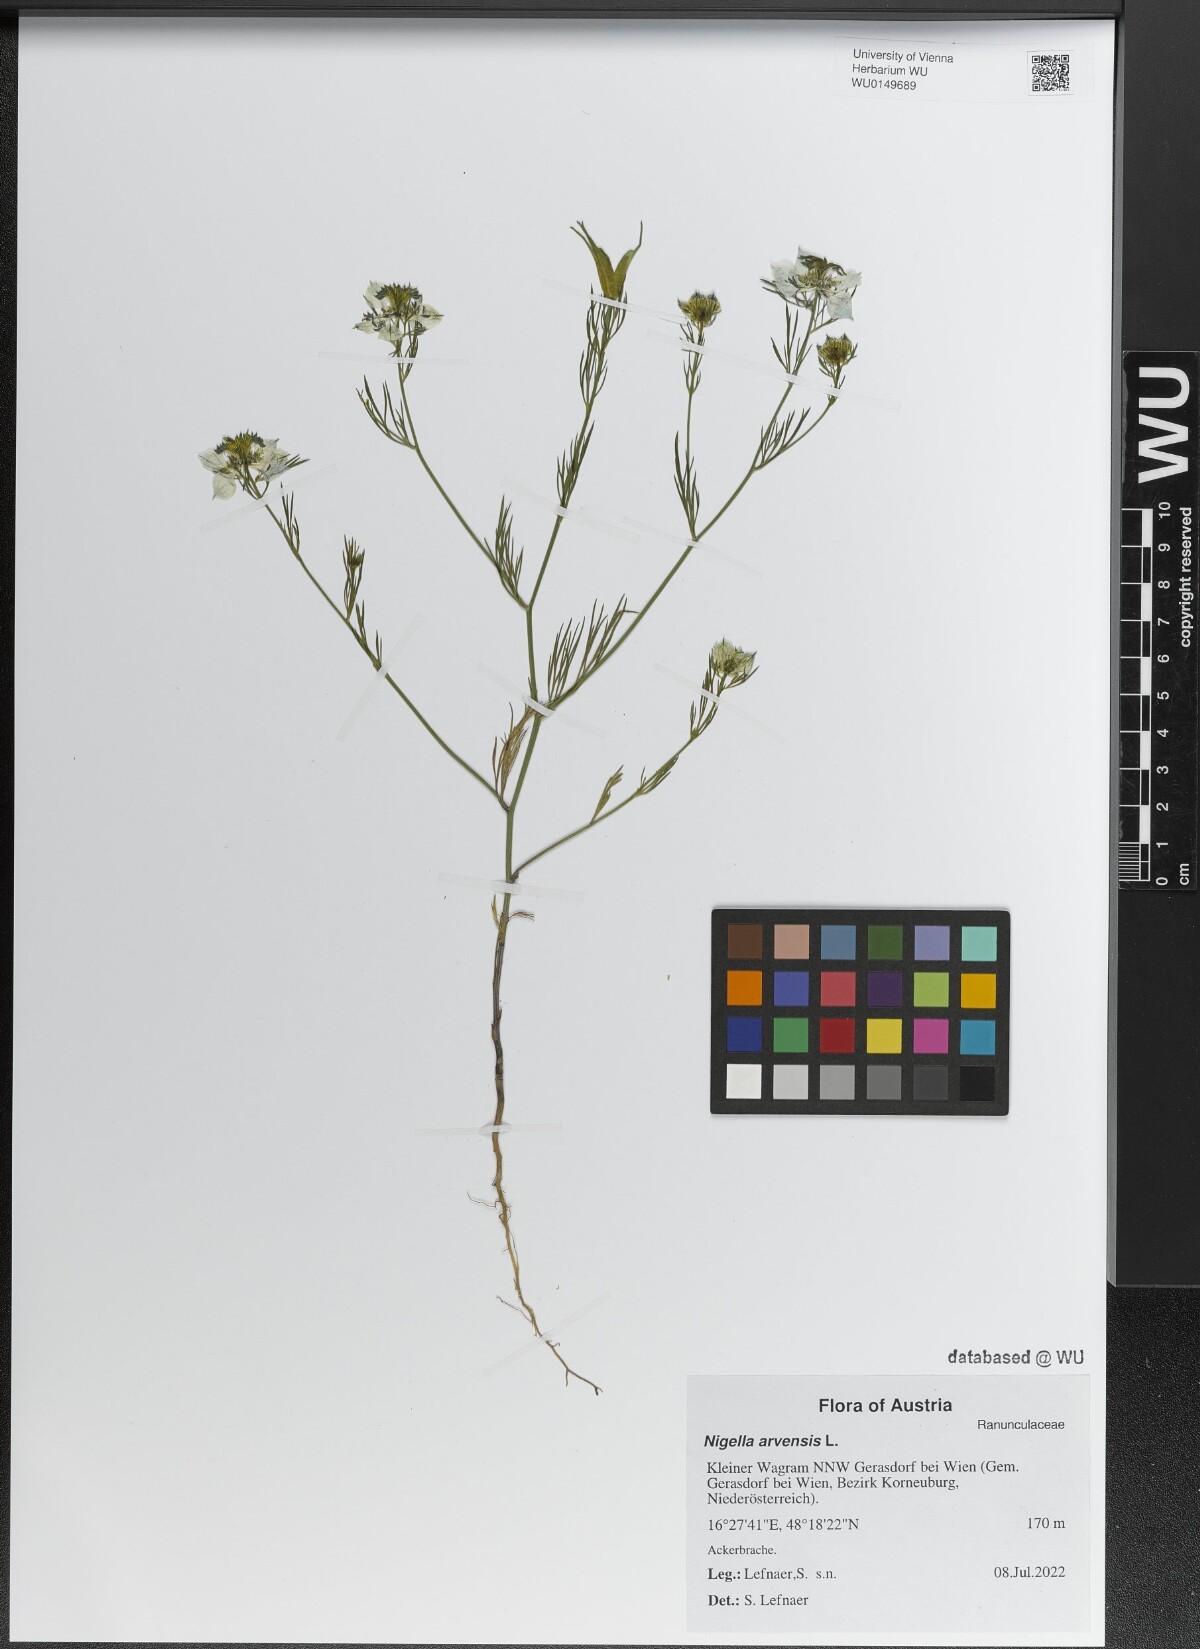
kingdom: Plantae
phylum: Tracheophyta
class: Magnoliopsida
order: Ranunculales
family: Ranunculaceae
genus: Nigella
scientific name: Nigella arvensis
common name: Wild fennel-flower
